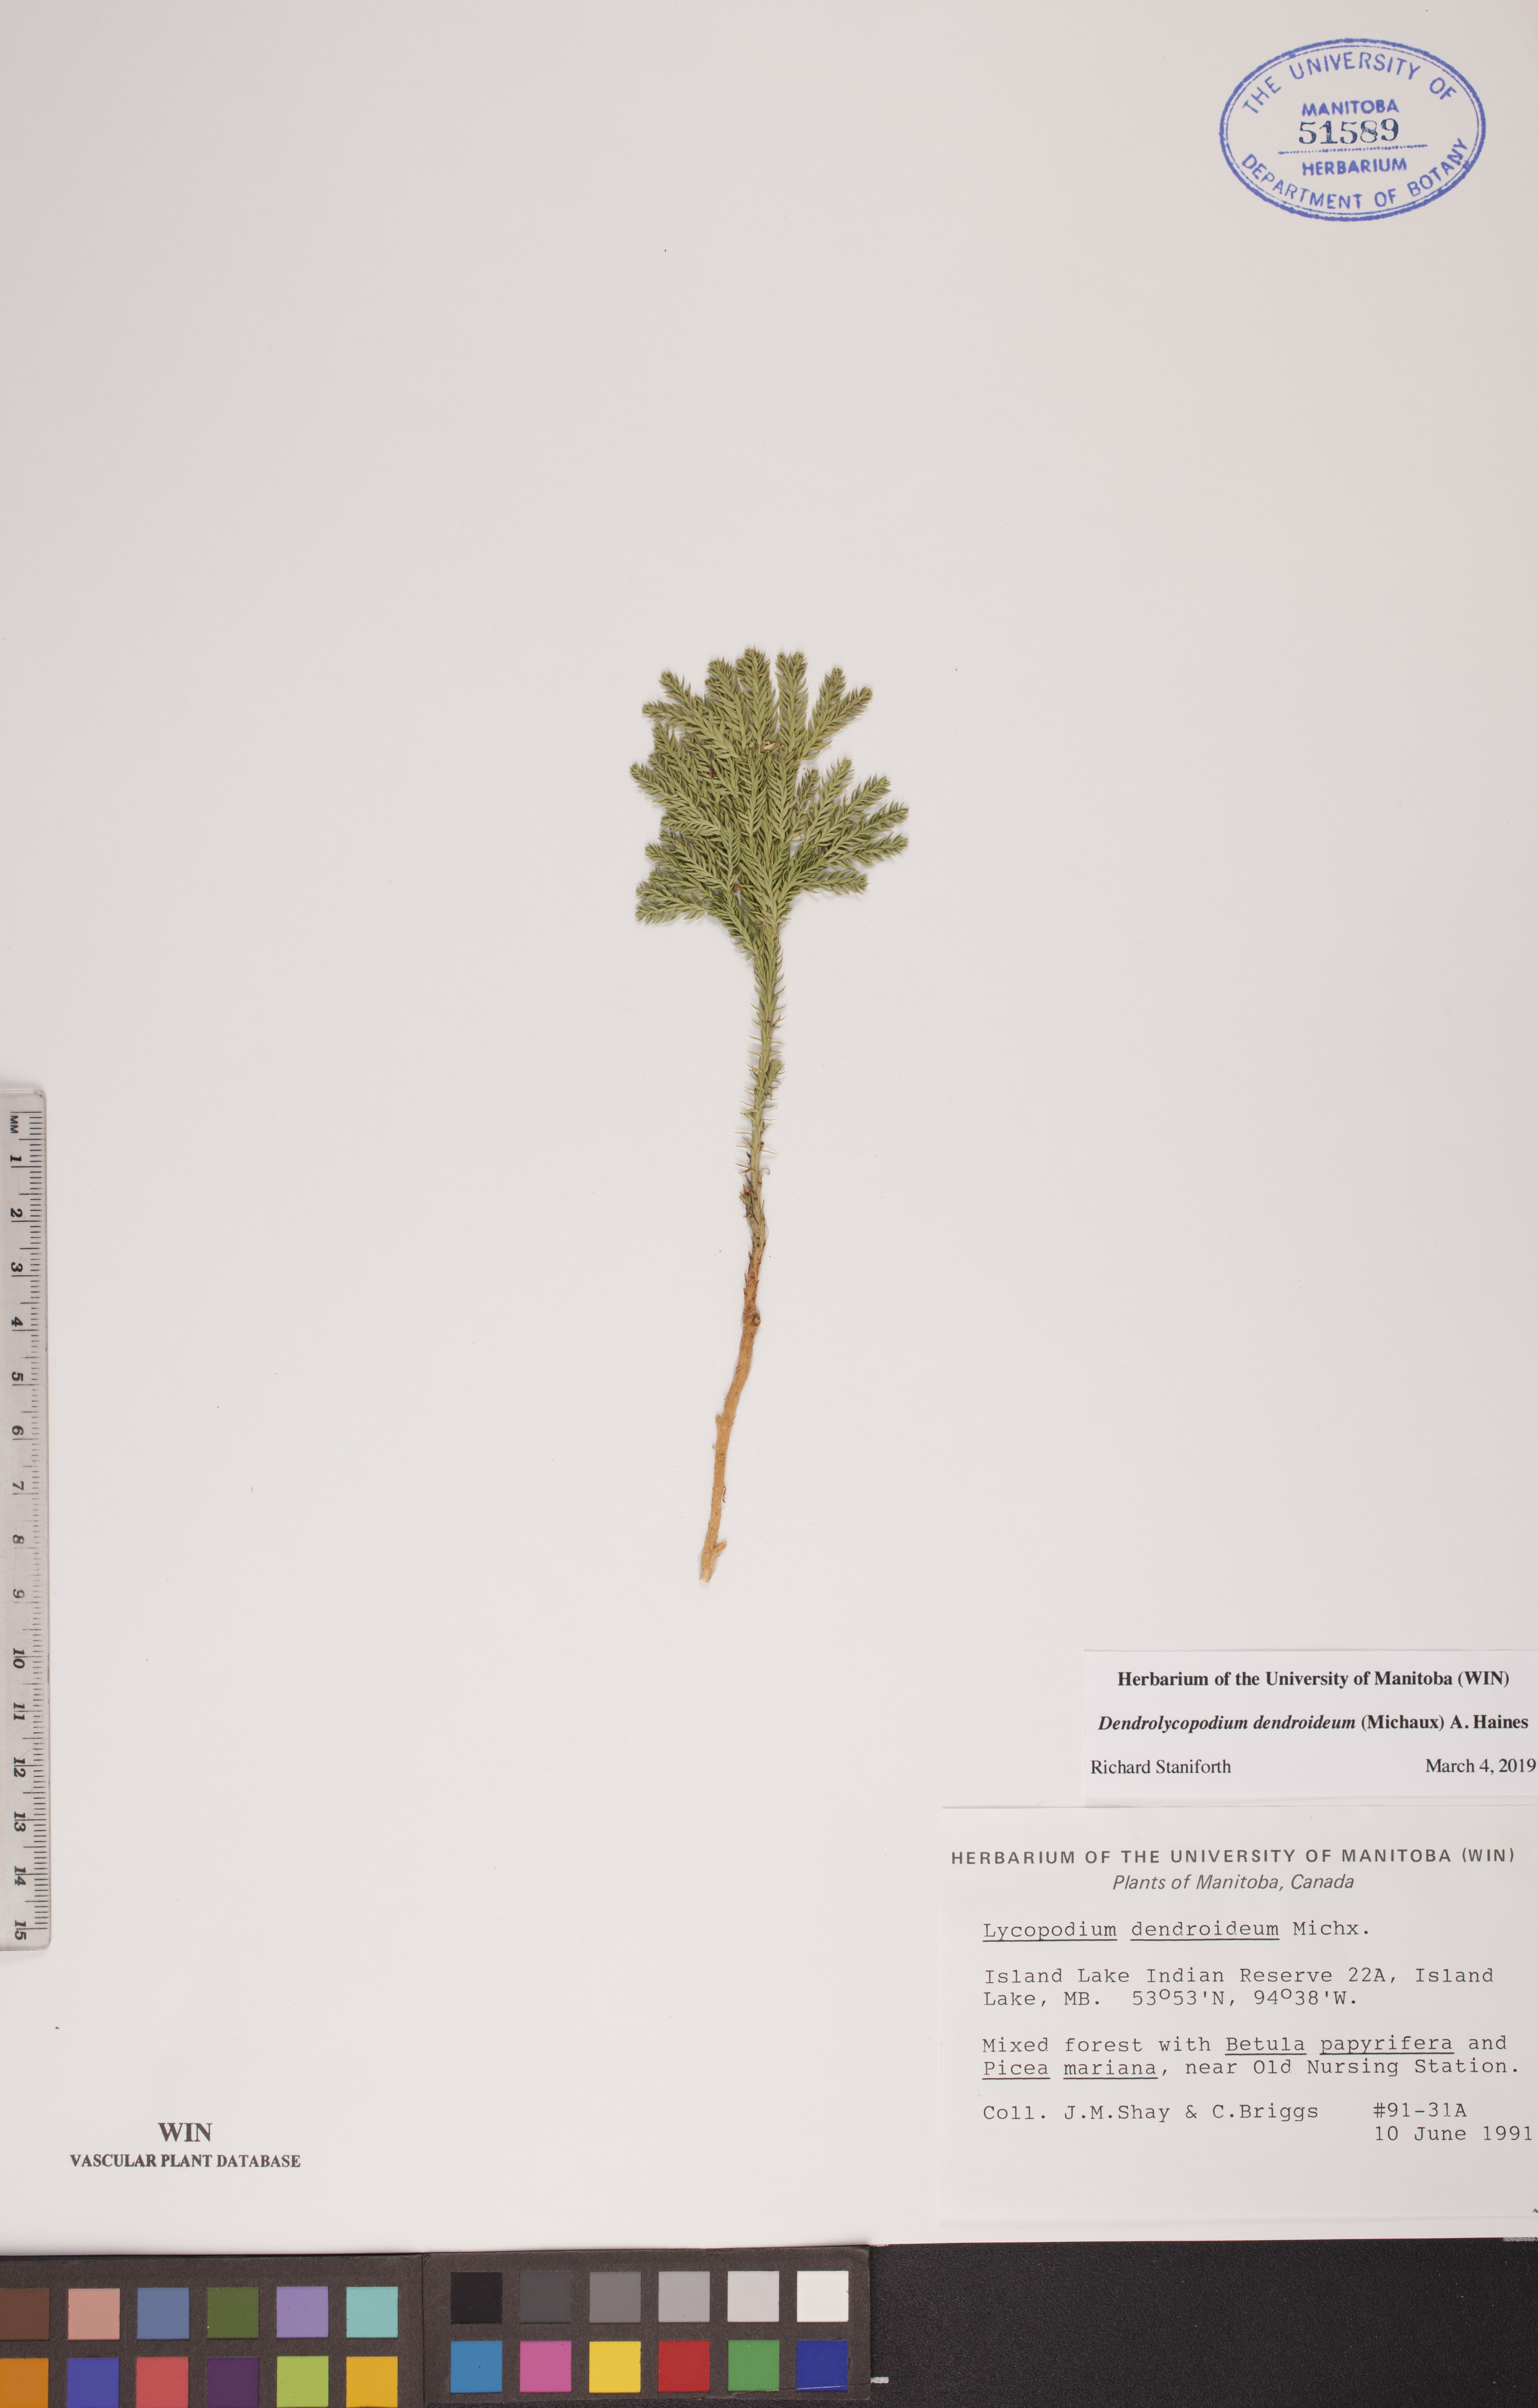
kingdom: Plantae
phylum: Tracheophyta
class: Lycopodiopsida
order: Lycopodiales
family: Lycopodiaceae
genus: Dendrolycopodium
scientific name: Dendrolycopodium dendroideum
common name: Northern tree-clubmoss
